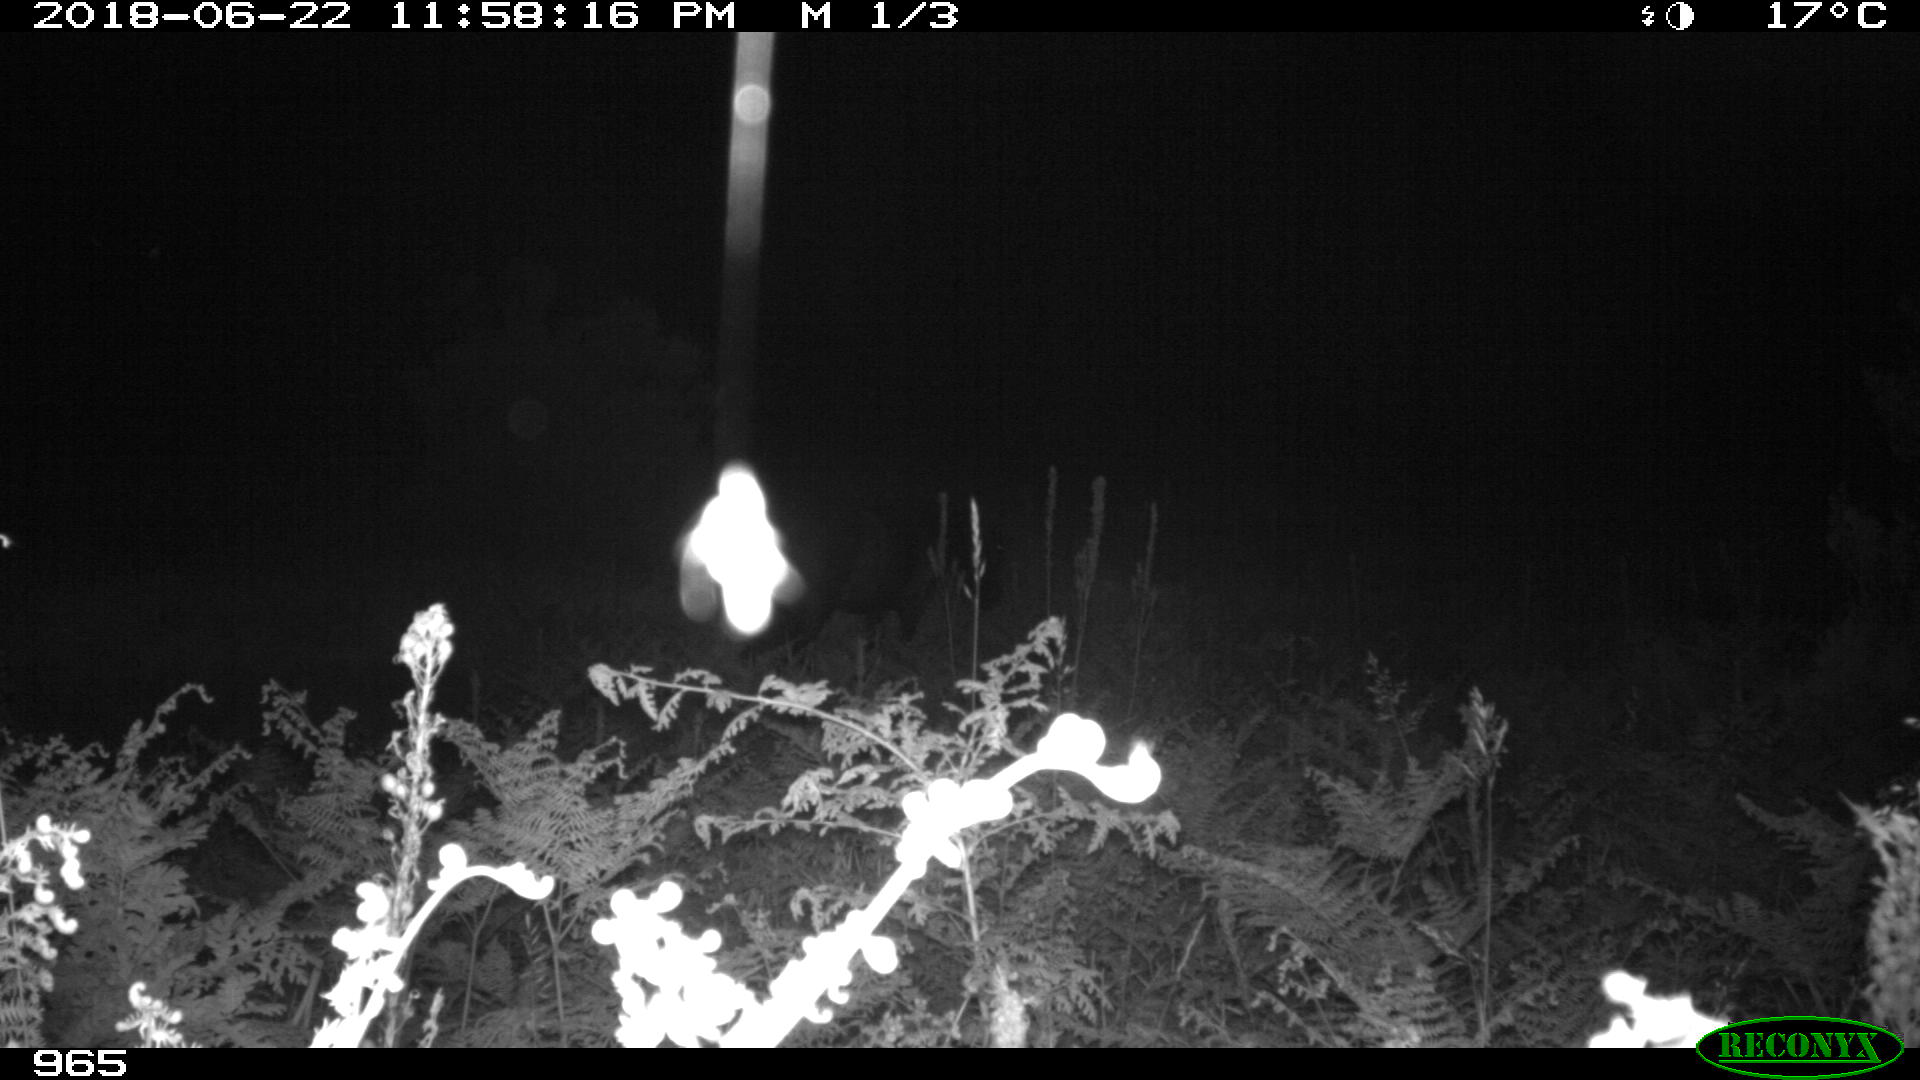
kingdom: Animalia
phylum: Chordata
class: Mammalia
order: Perissodactyla
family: Equidae
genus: Equus
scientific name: Equus caballus
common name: Horse
